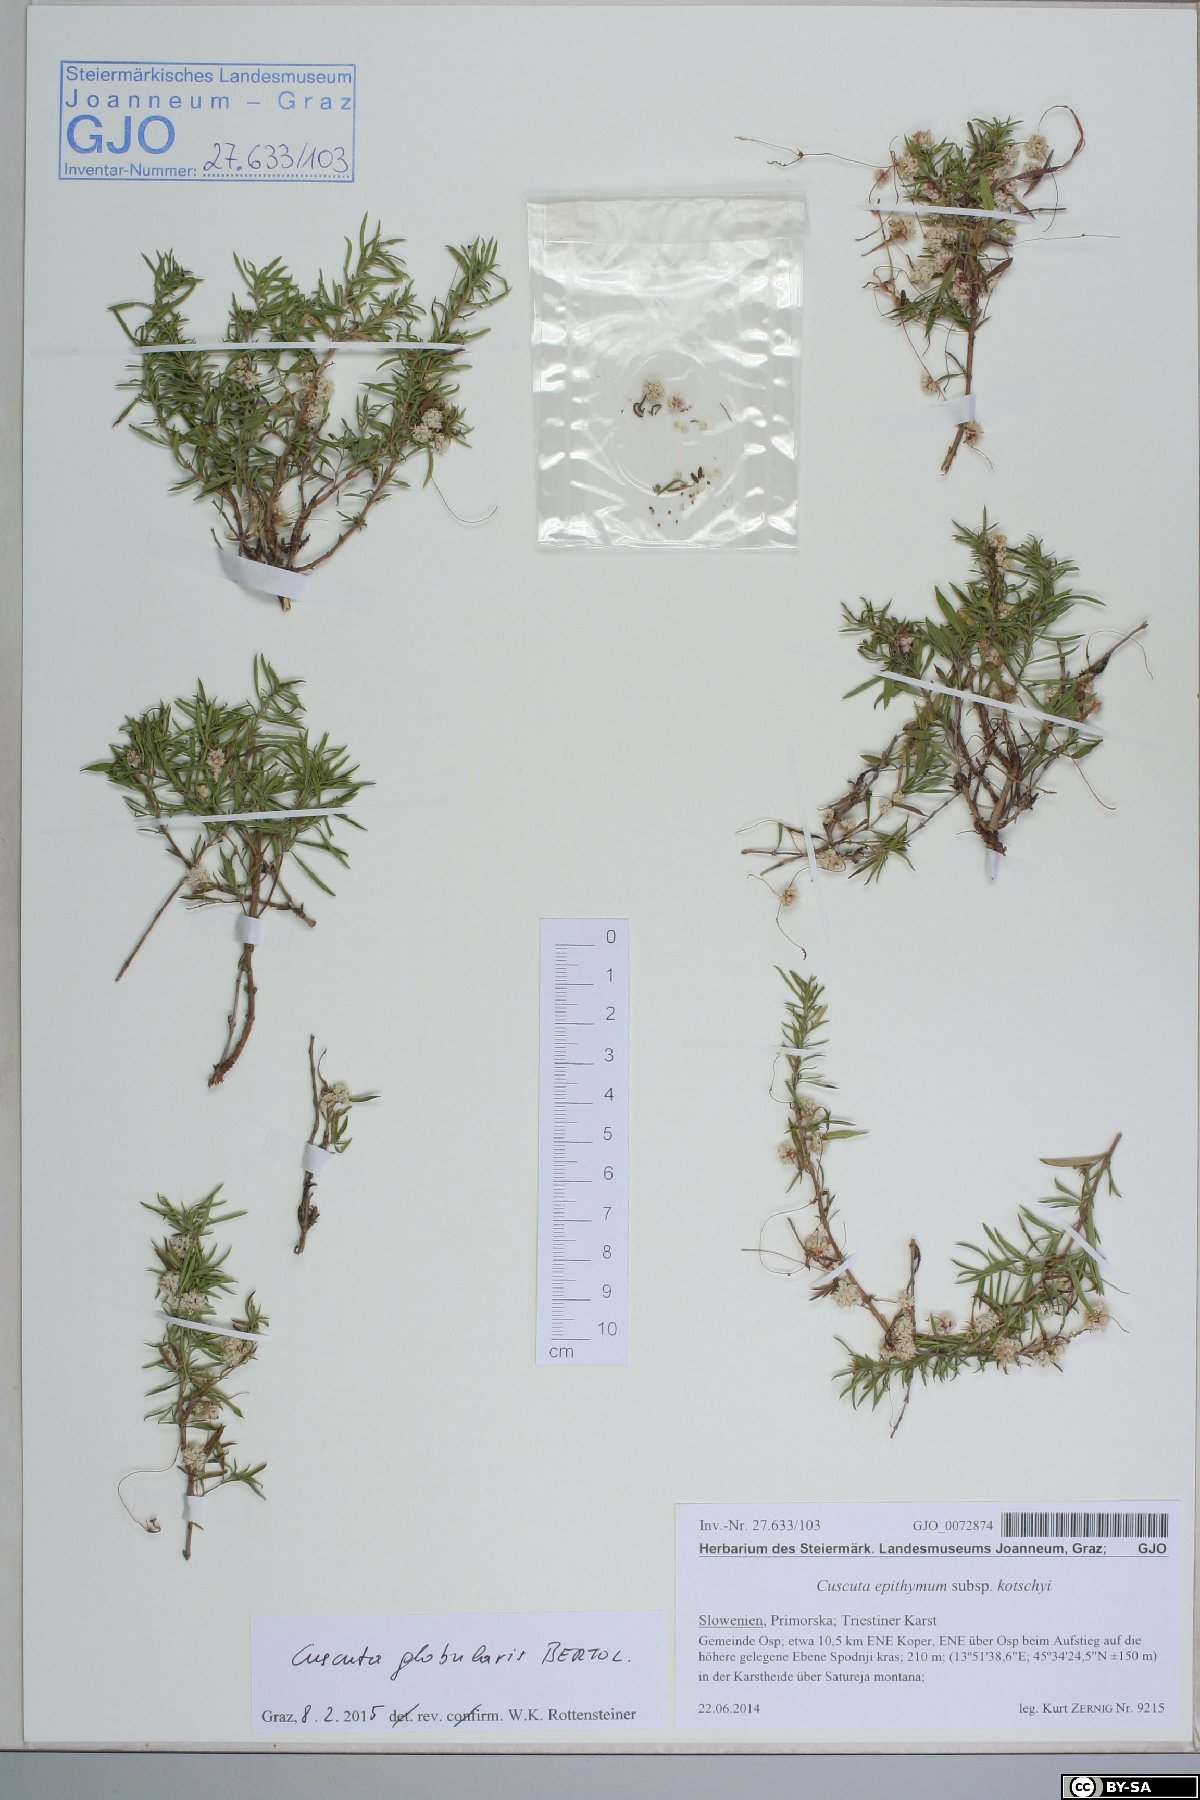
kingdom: Plantae
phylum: Tracheophyta
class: Magnoliopsida
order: Solanales
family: Convolvulaceae
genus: Cuscuta
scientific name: Cuscuta palaestina
